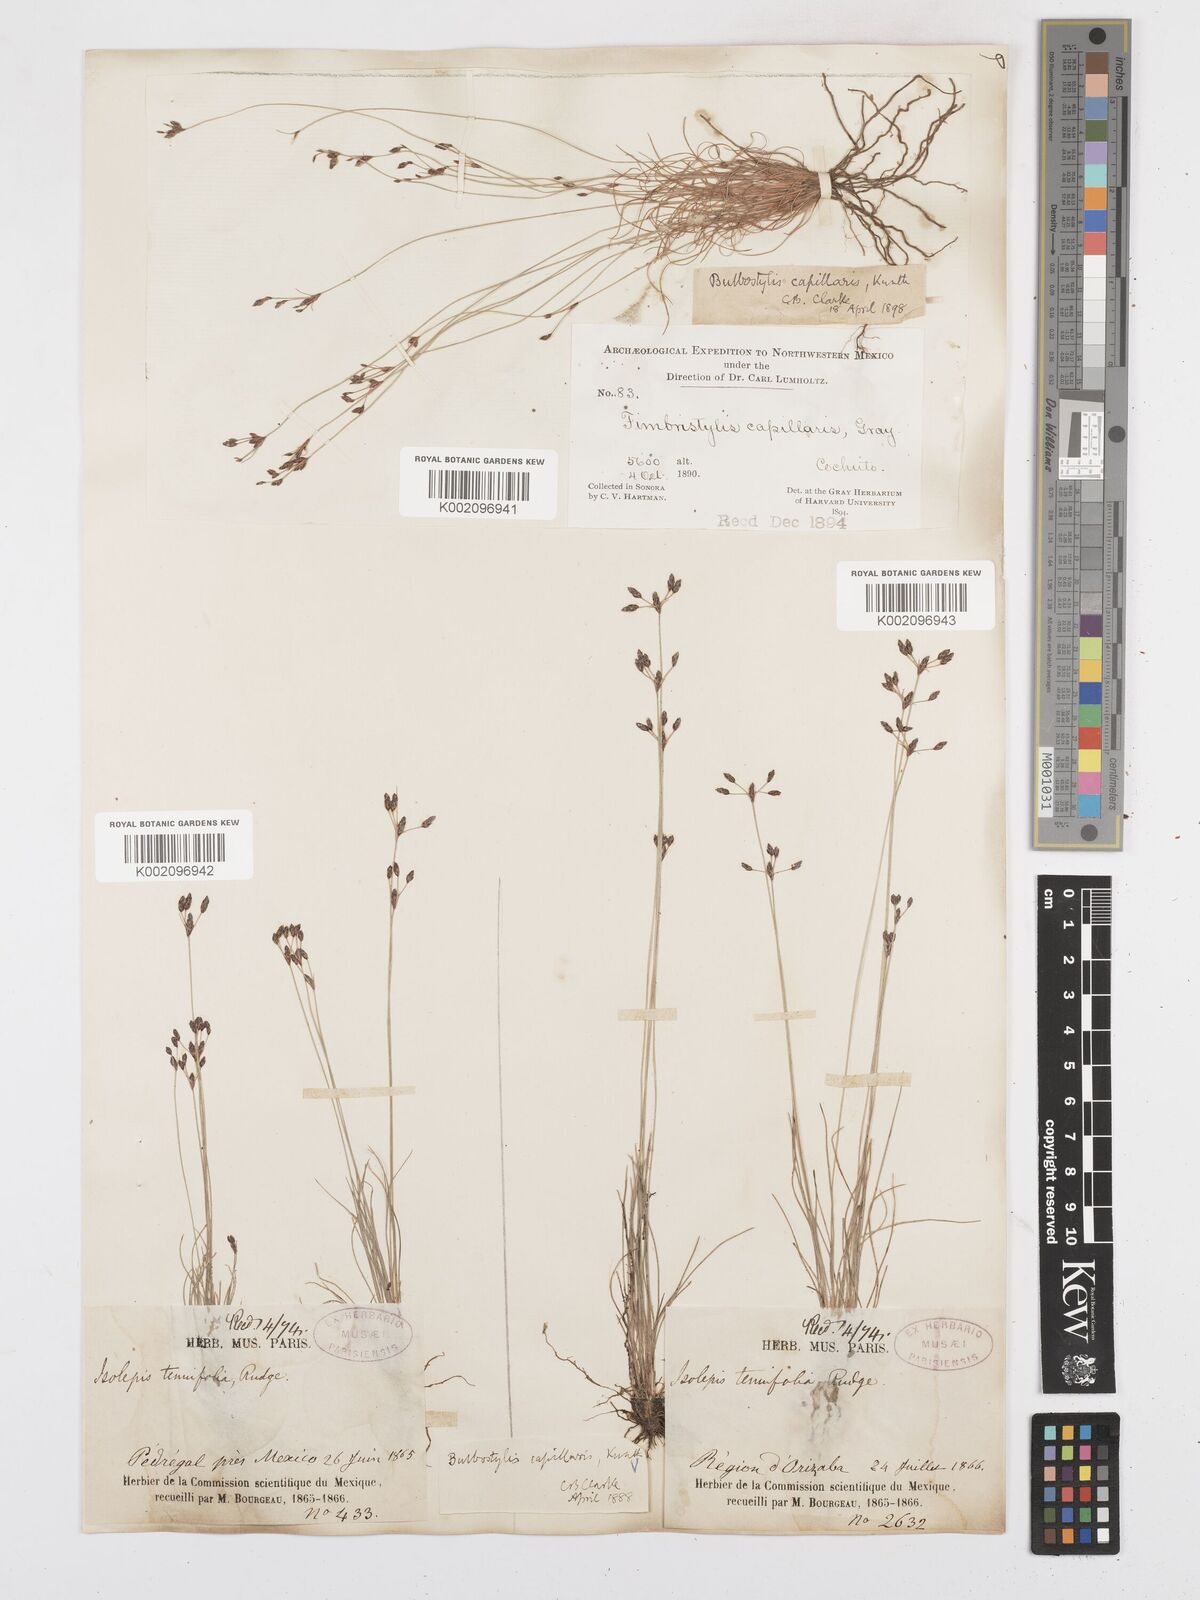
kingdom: Plantae
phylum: Tracheophyta
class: Liliopsida
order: Poales
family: Cyperaceae
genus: Bulbostylis
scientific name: Bulbostylis capillaris
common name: Densetuft hairsedge
